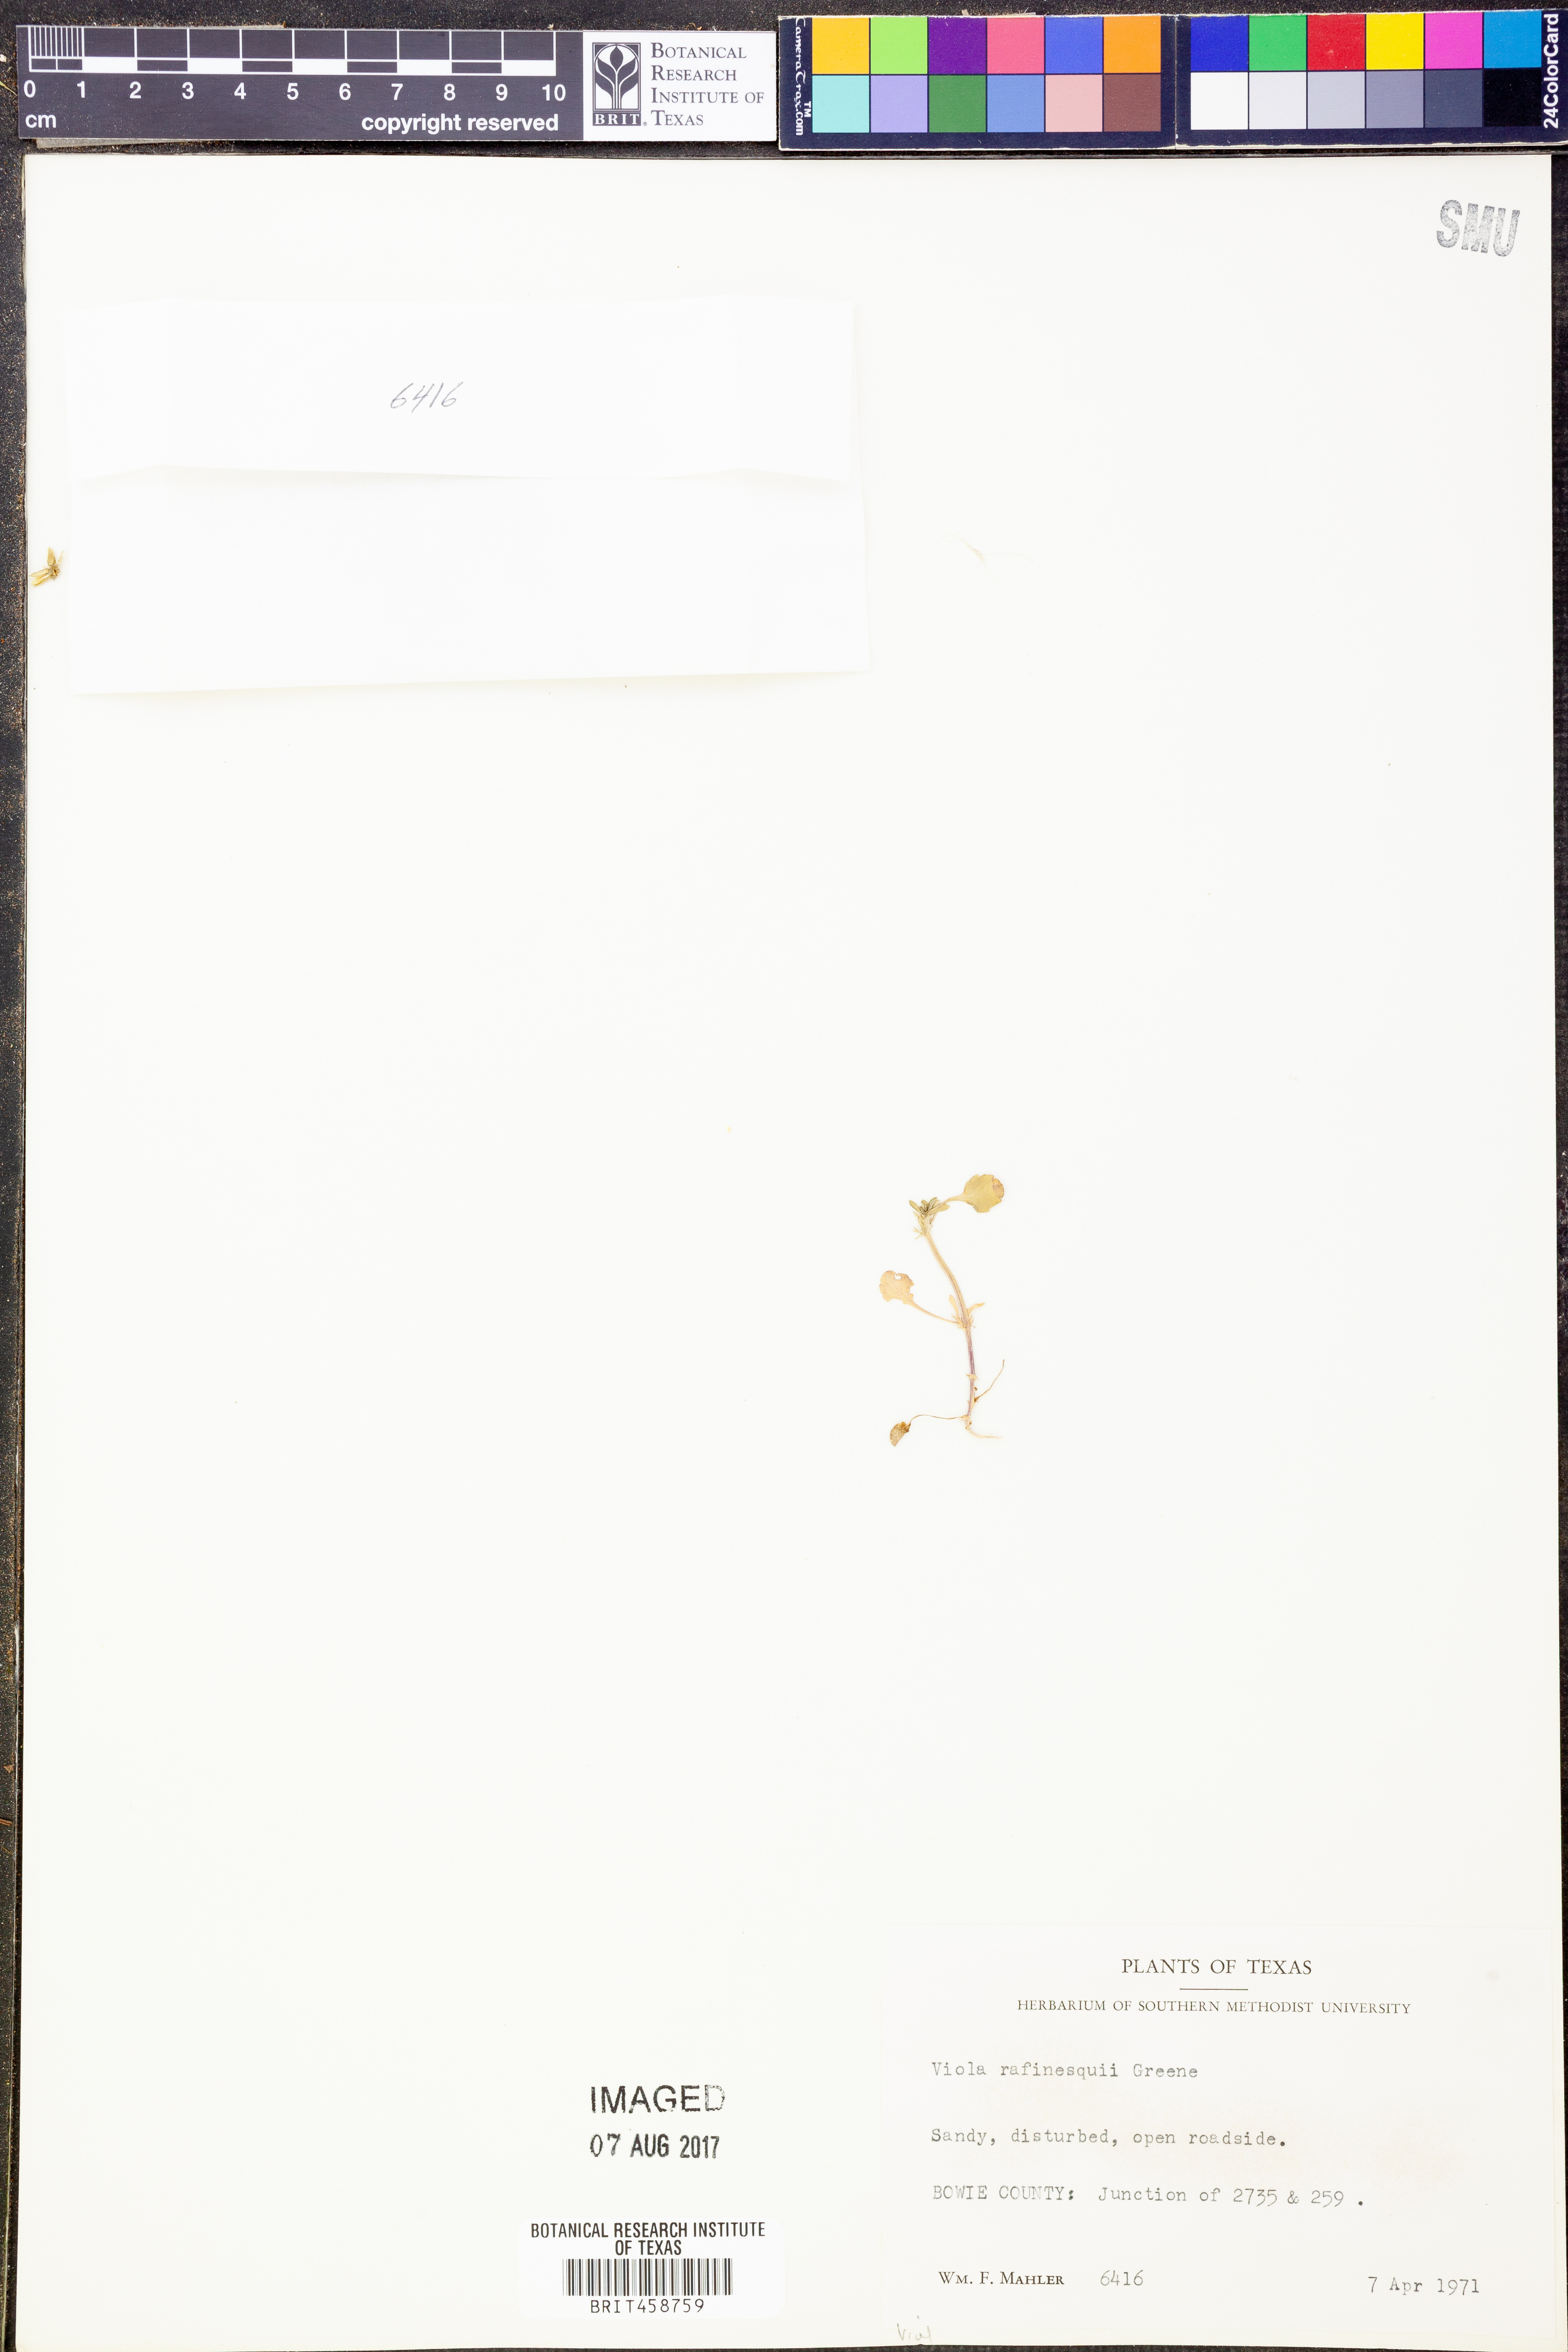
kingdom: Plantae
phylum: Tracheophyta
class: Magnoliopsida
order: Malpighiales
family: Violaceae
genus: Viola
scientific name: Viola rafinesquei
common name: American field pansy
